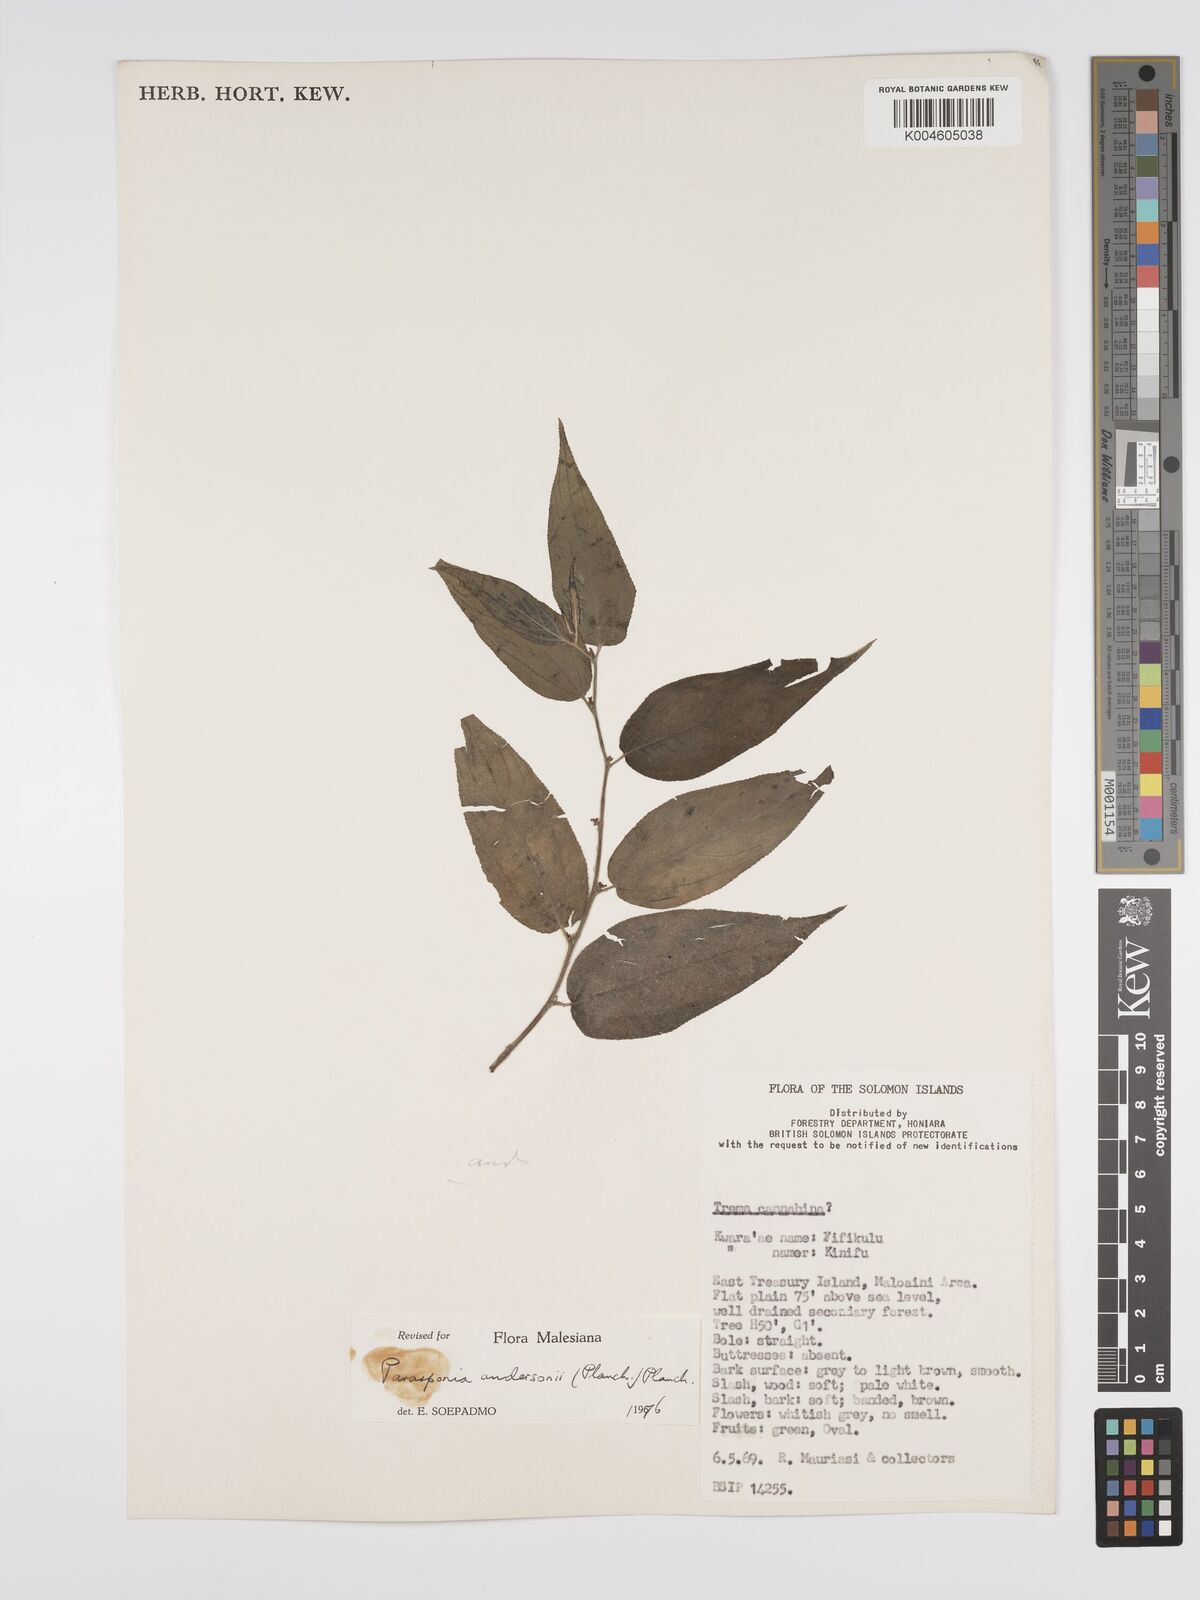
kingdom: Plantae
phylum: Tracheophyta
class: Magnoliopsida
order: Rosales
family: Cannabaceae
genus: Trema
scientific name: Trema andersonii
